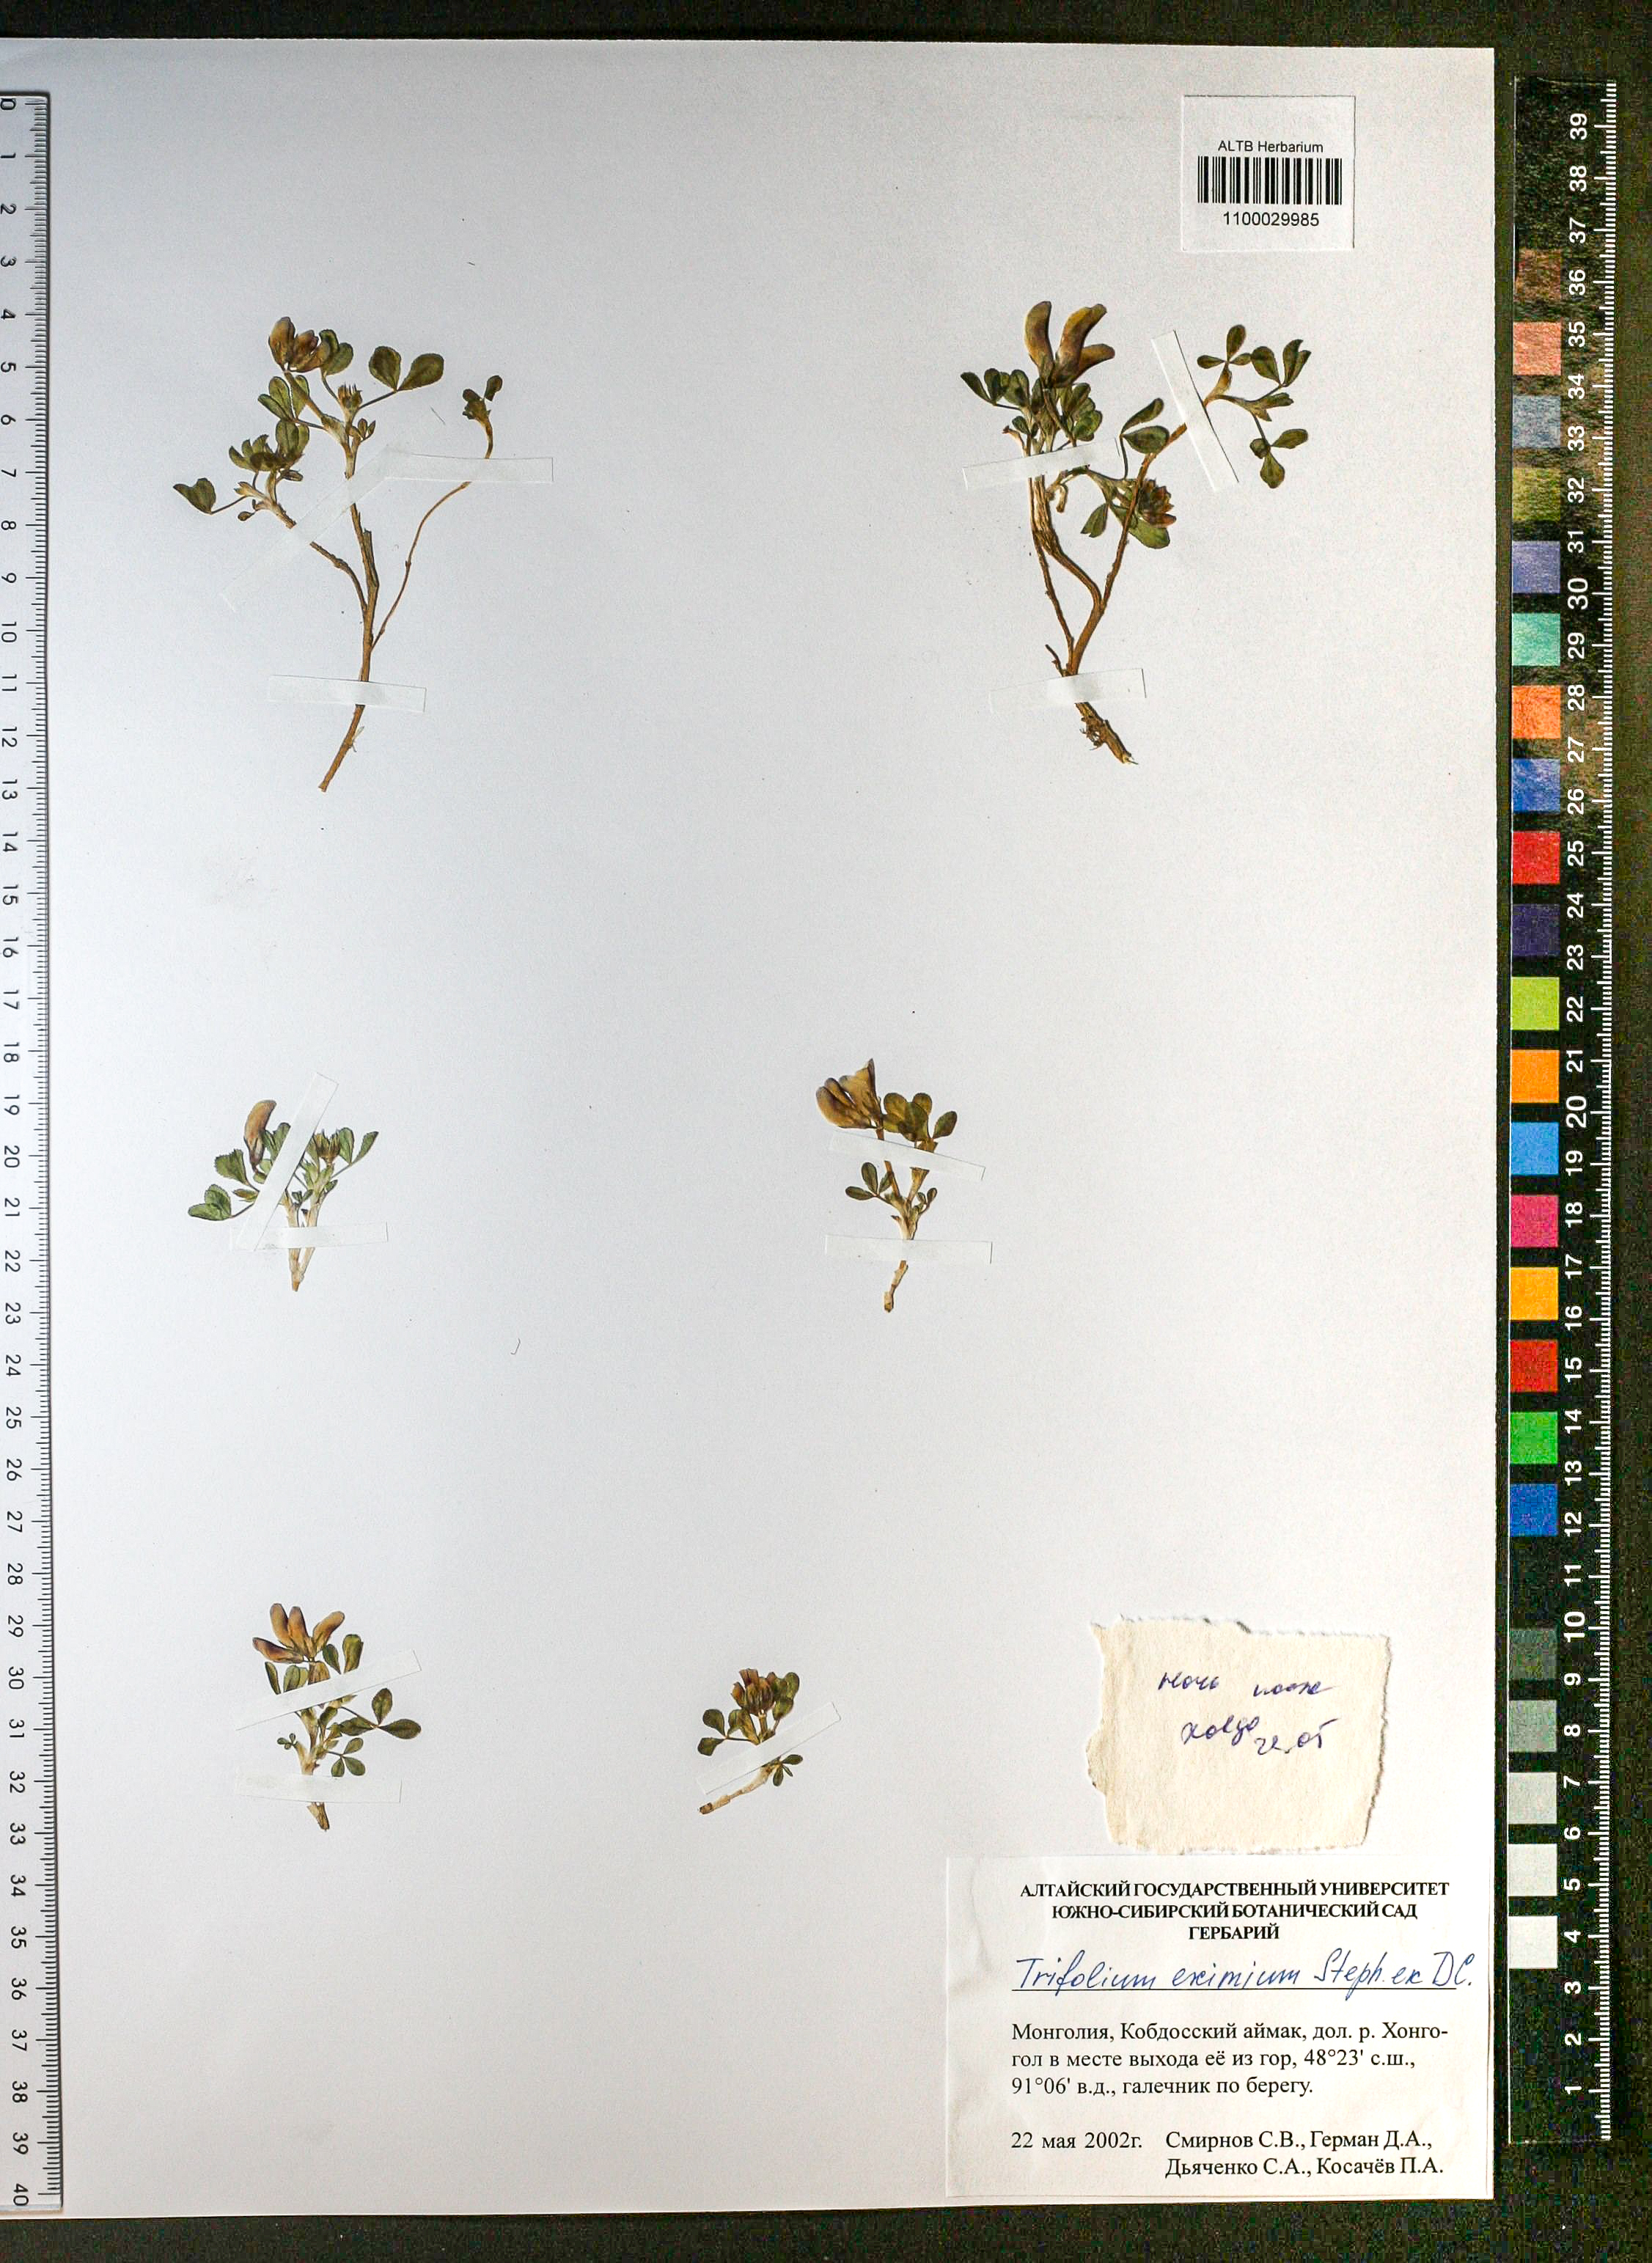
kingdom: Plantae
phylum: Tracheophyta
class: Magnoliopsida
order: Fabales
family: Fabaceae
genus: Trifolium
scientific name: Trifolium eximium
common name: Excellent clover
